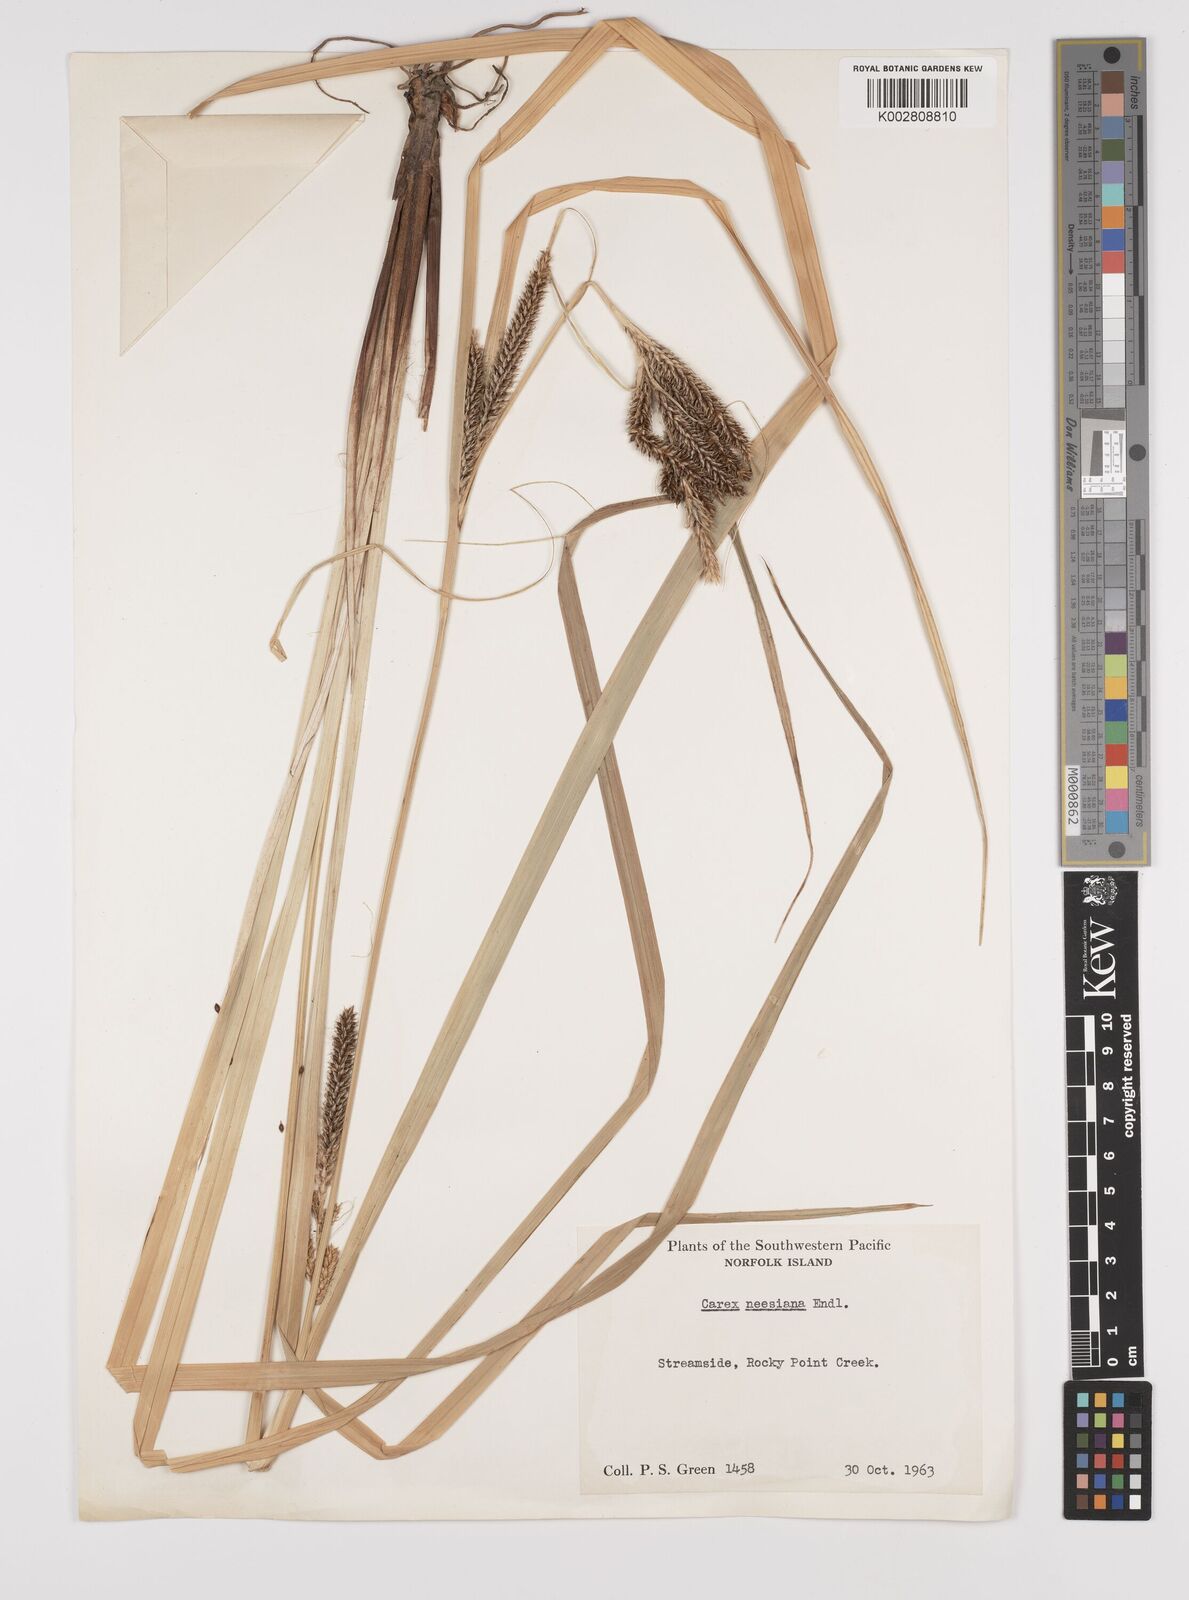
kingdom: Plantae
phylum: Tracheophyta
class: Liliopsida
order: Poales
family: Cyperaceae
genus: Carex
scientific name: Carex dissita
